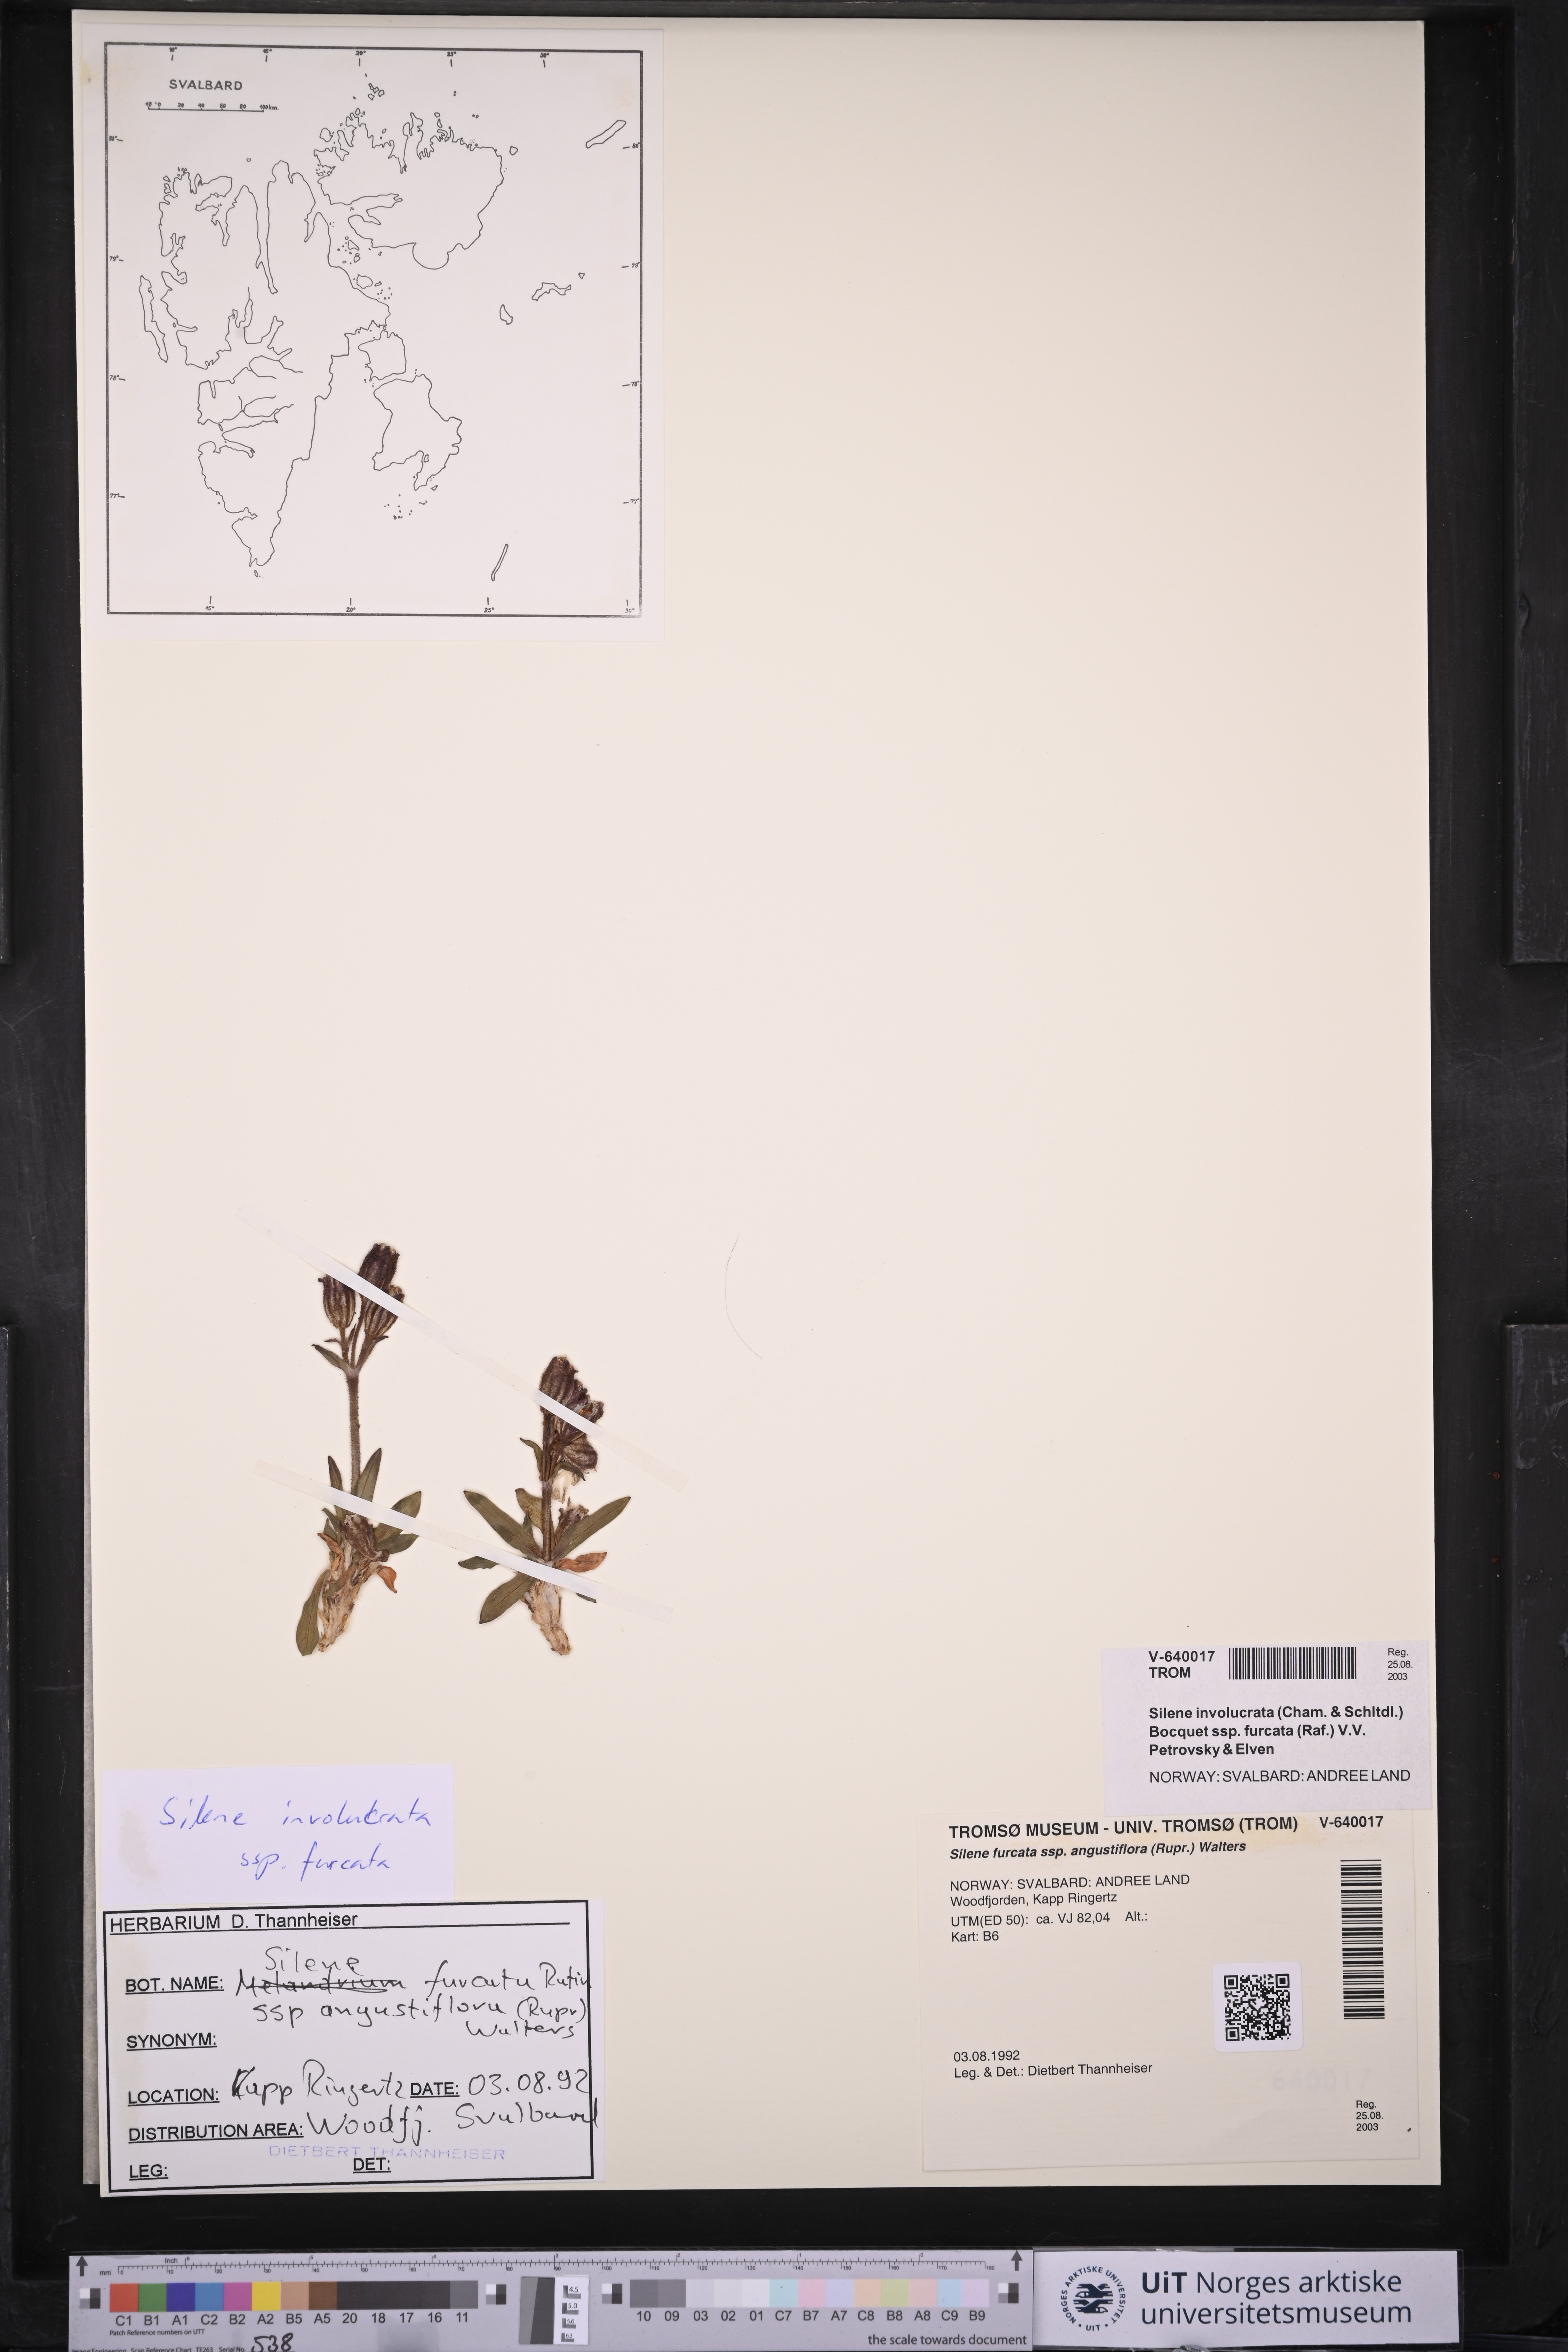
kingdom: Plantae
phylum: Tracheophyta
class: Magnoliopsida
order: Caryophyllales
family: Caryophyllaceae
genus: Silene
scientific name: Silene involucrata
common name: Greater arctic campion
